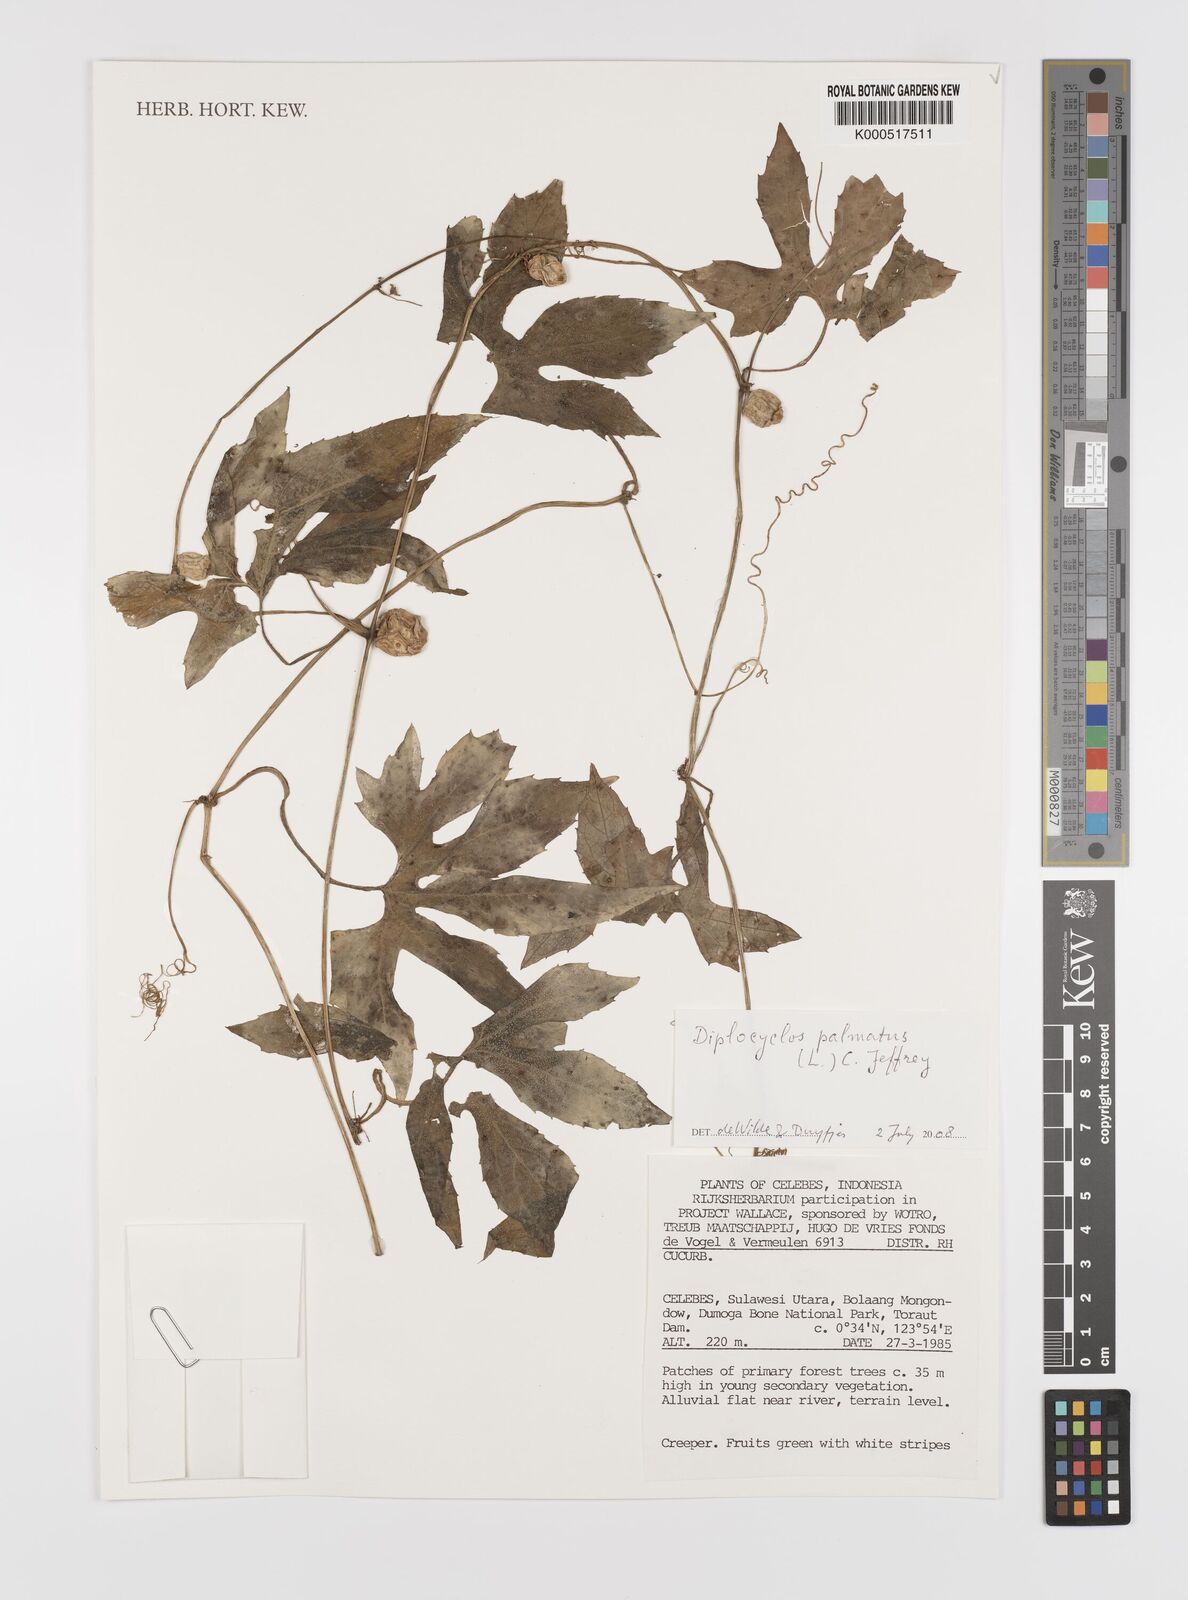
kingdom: Plantae
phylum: Tracheophyta
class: Magnoliopsida
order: Cucurbitales
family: Cucurbitaceae
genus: Diplocyclos
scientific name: Diplocyclos palmatus
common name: Striped-cucumber
